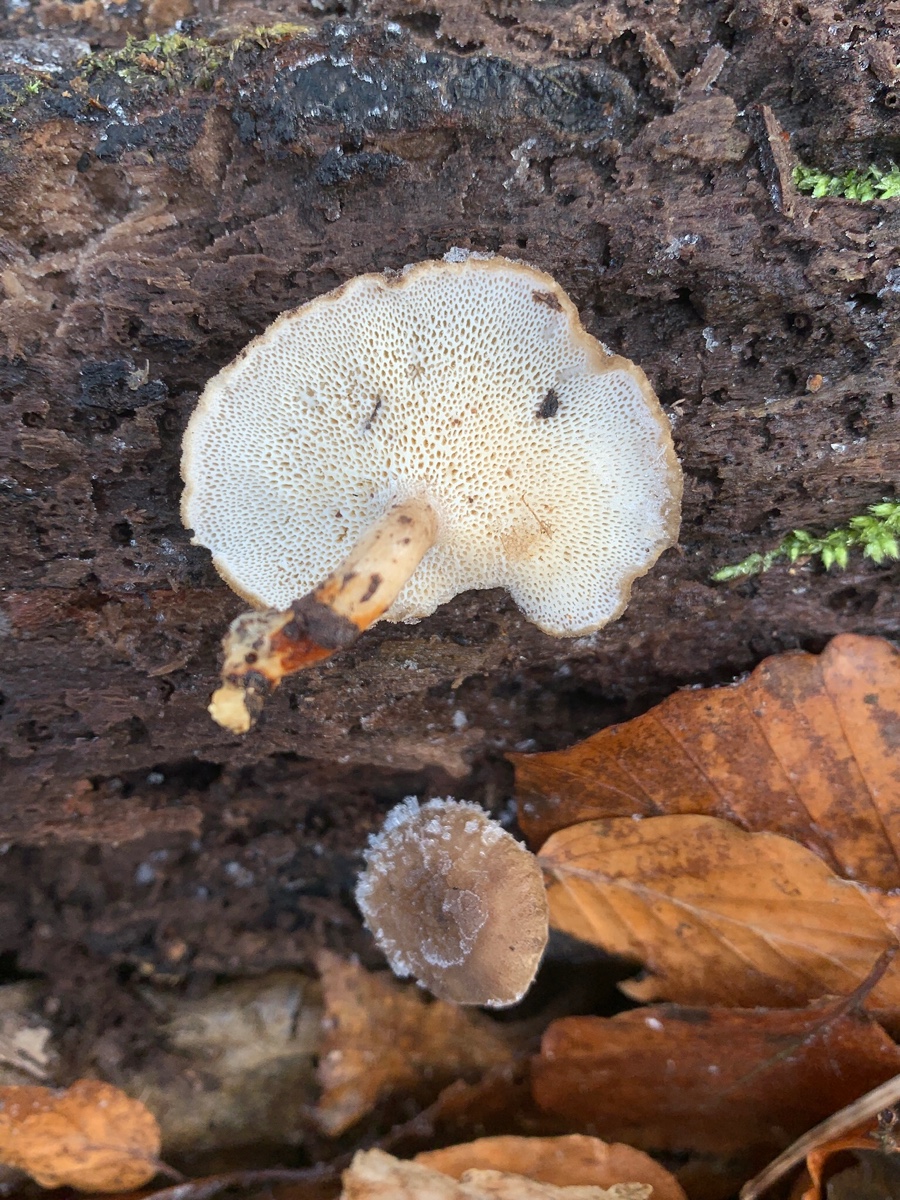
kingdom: Fungi
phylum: Basidiomycota
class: Agaricomycetes
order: Polyporales
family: Polyporaceae
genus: Lentinus
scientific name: Lentinus brumalis
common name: vinter-stilkporesvamp
